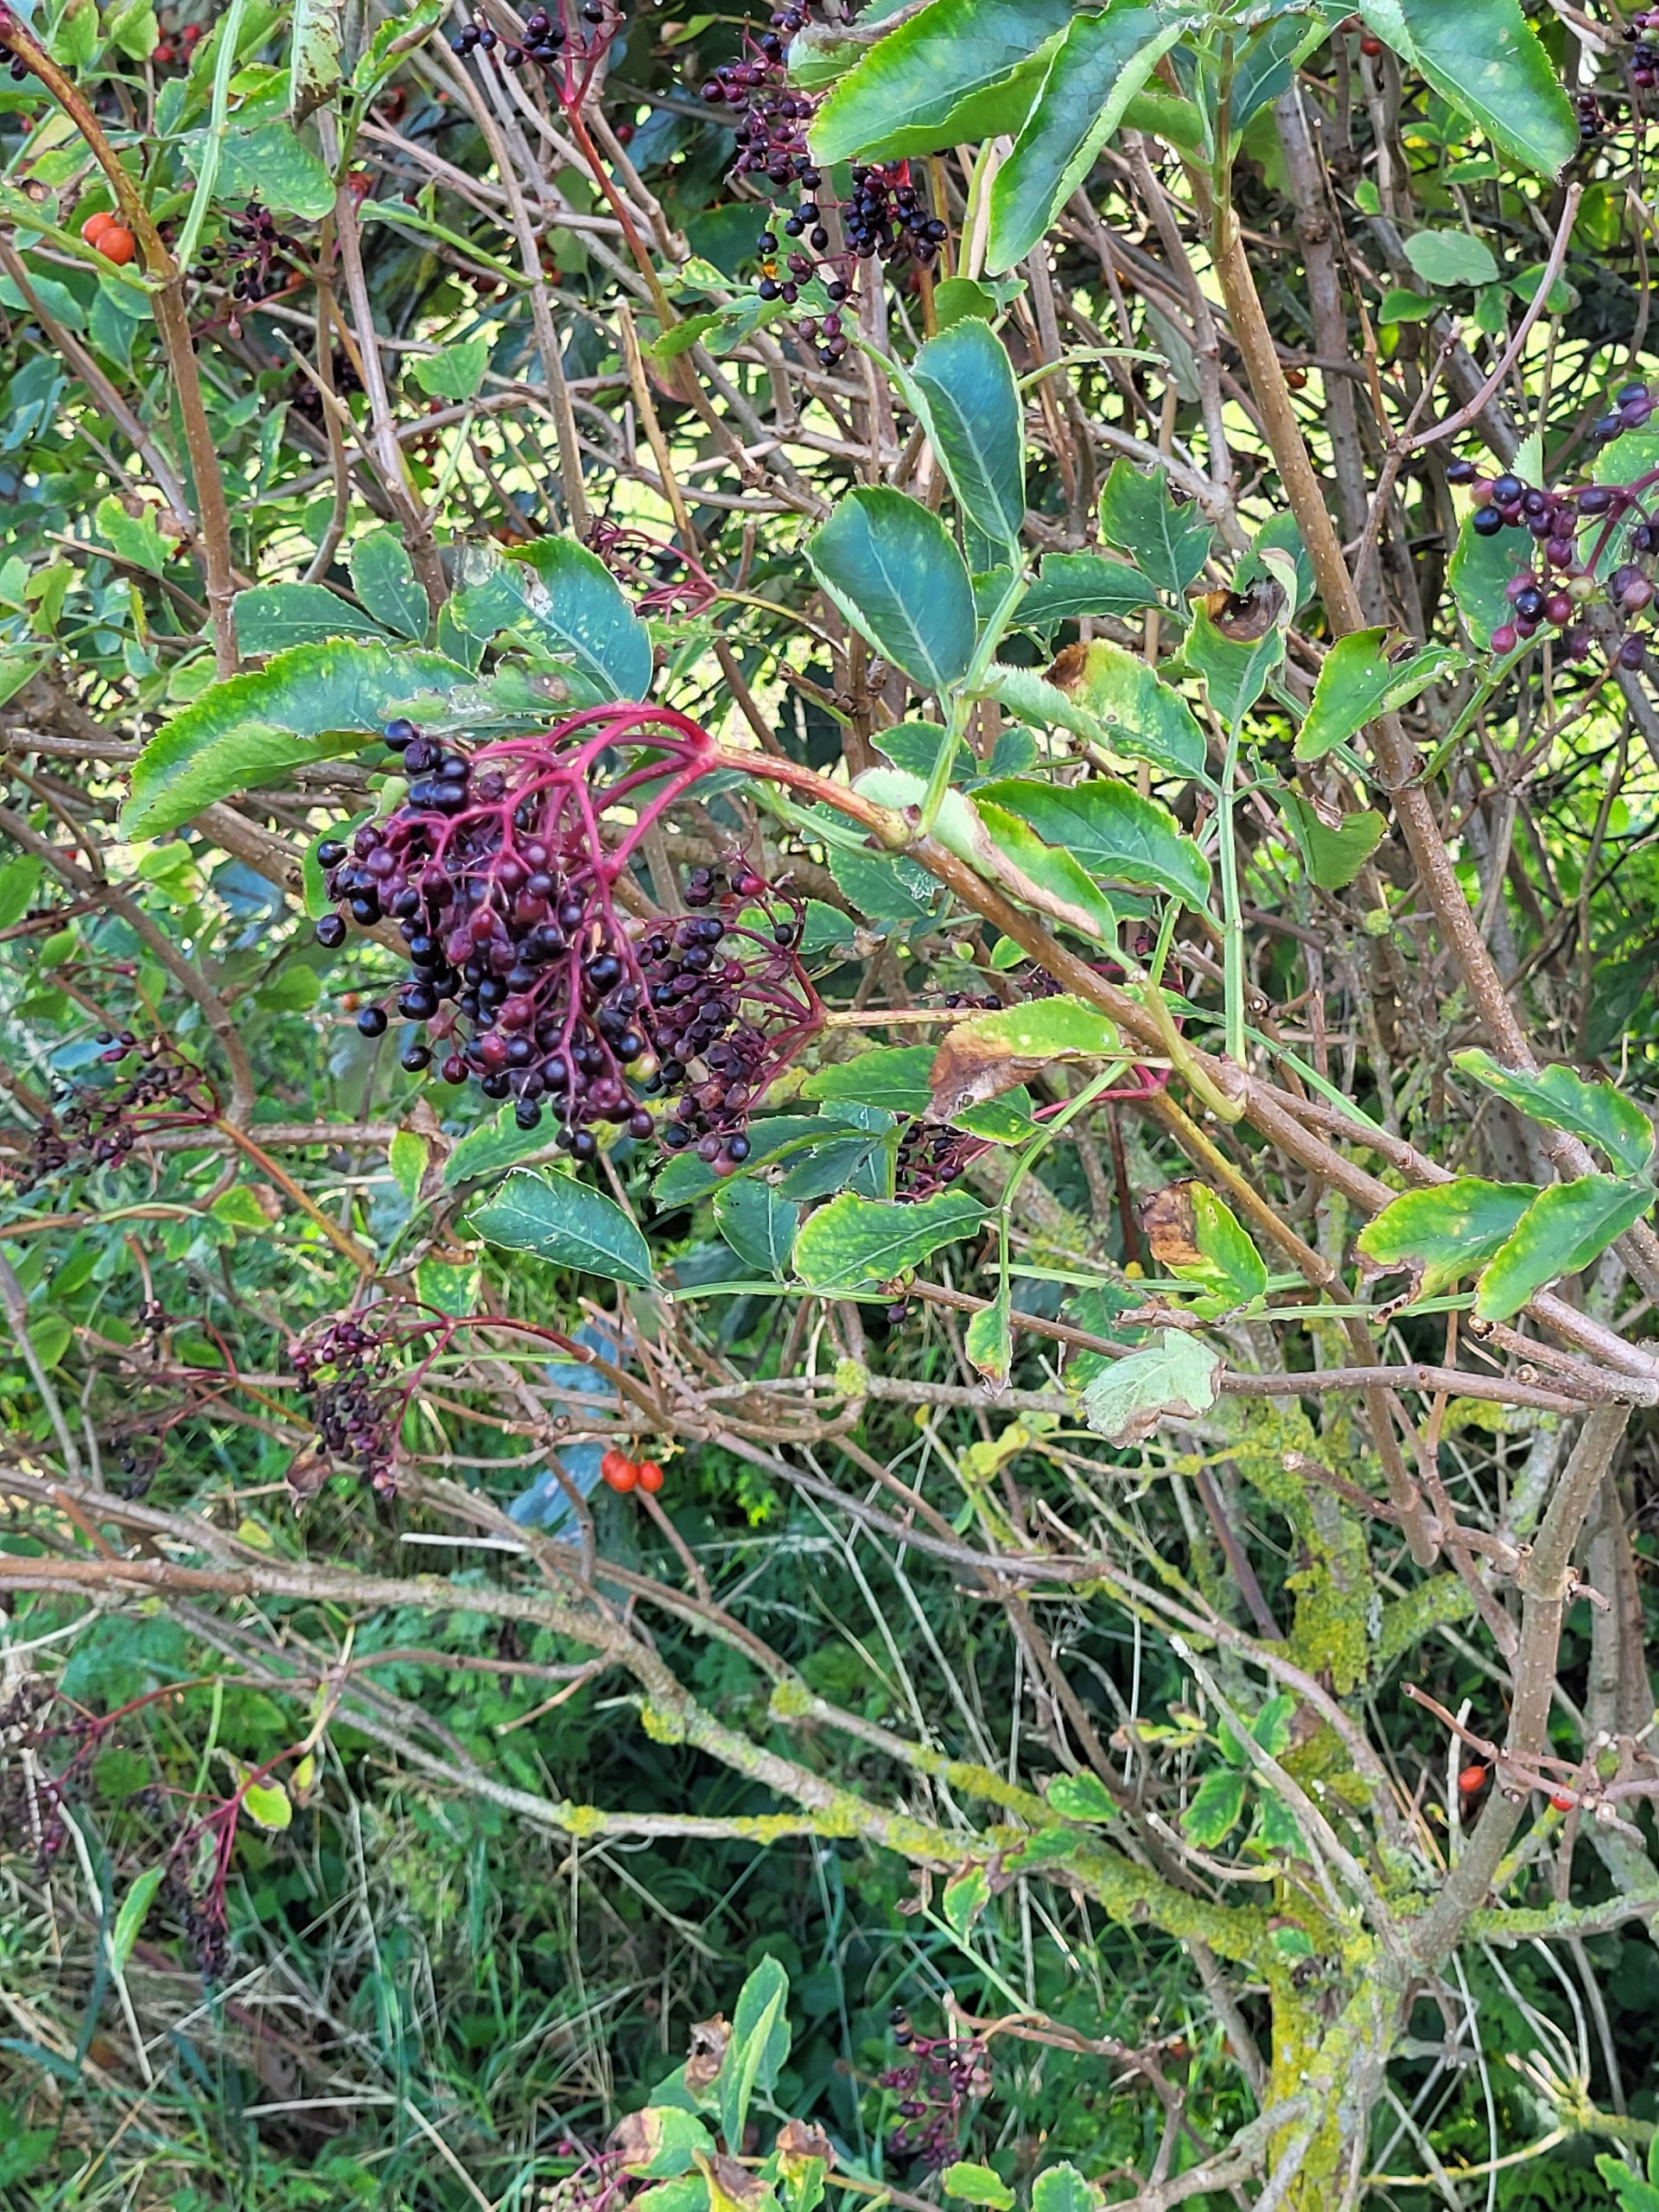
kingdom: Plantae
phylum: Tracheophyta
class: Magnoliopsida
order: Dipsacales
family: Viburnaceae
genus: Sambucus
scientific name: Sambucus nigra
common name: Almindelig hyld
